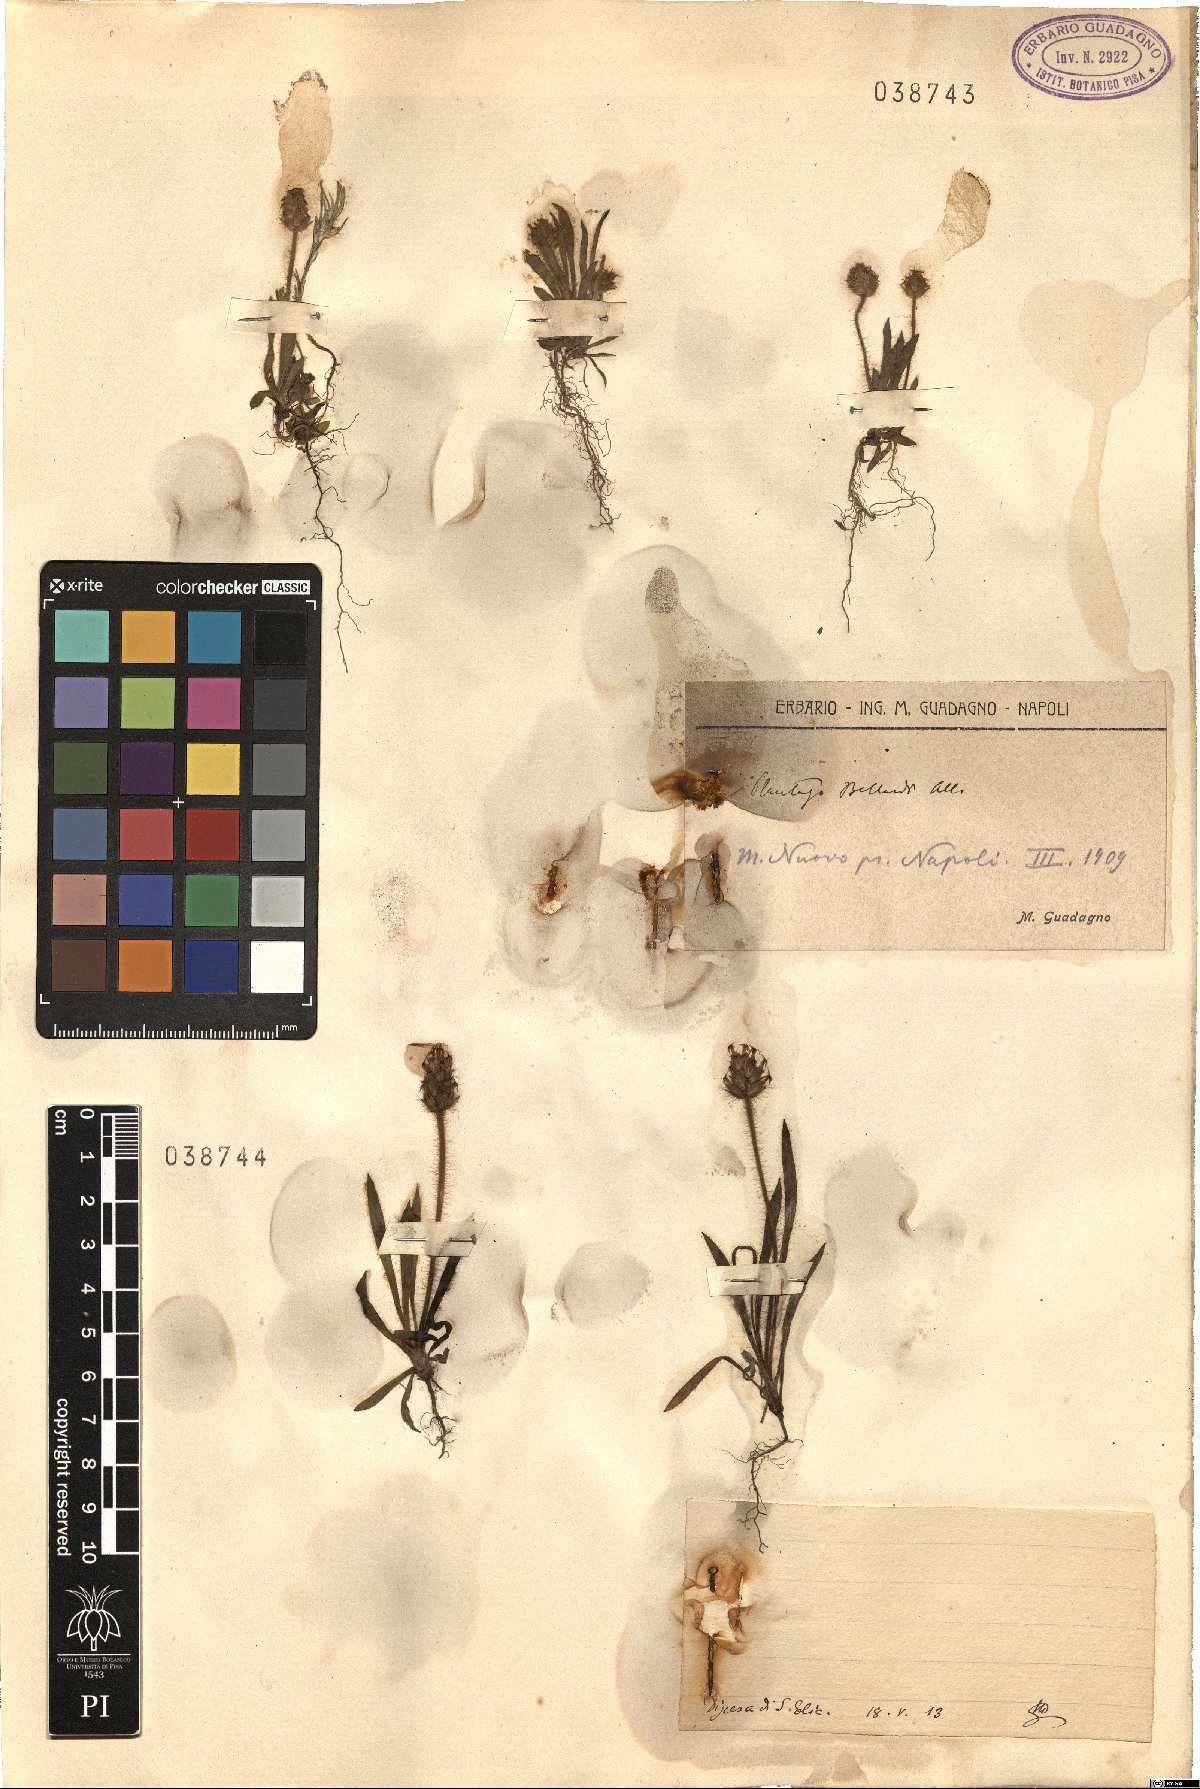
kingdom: Plantae
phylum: Tracheophyta
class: Magnoliopsida
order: Lamiales
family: Plantaginaceae
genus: Plantago
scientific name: Plantago
